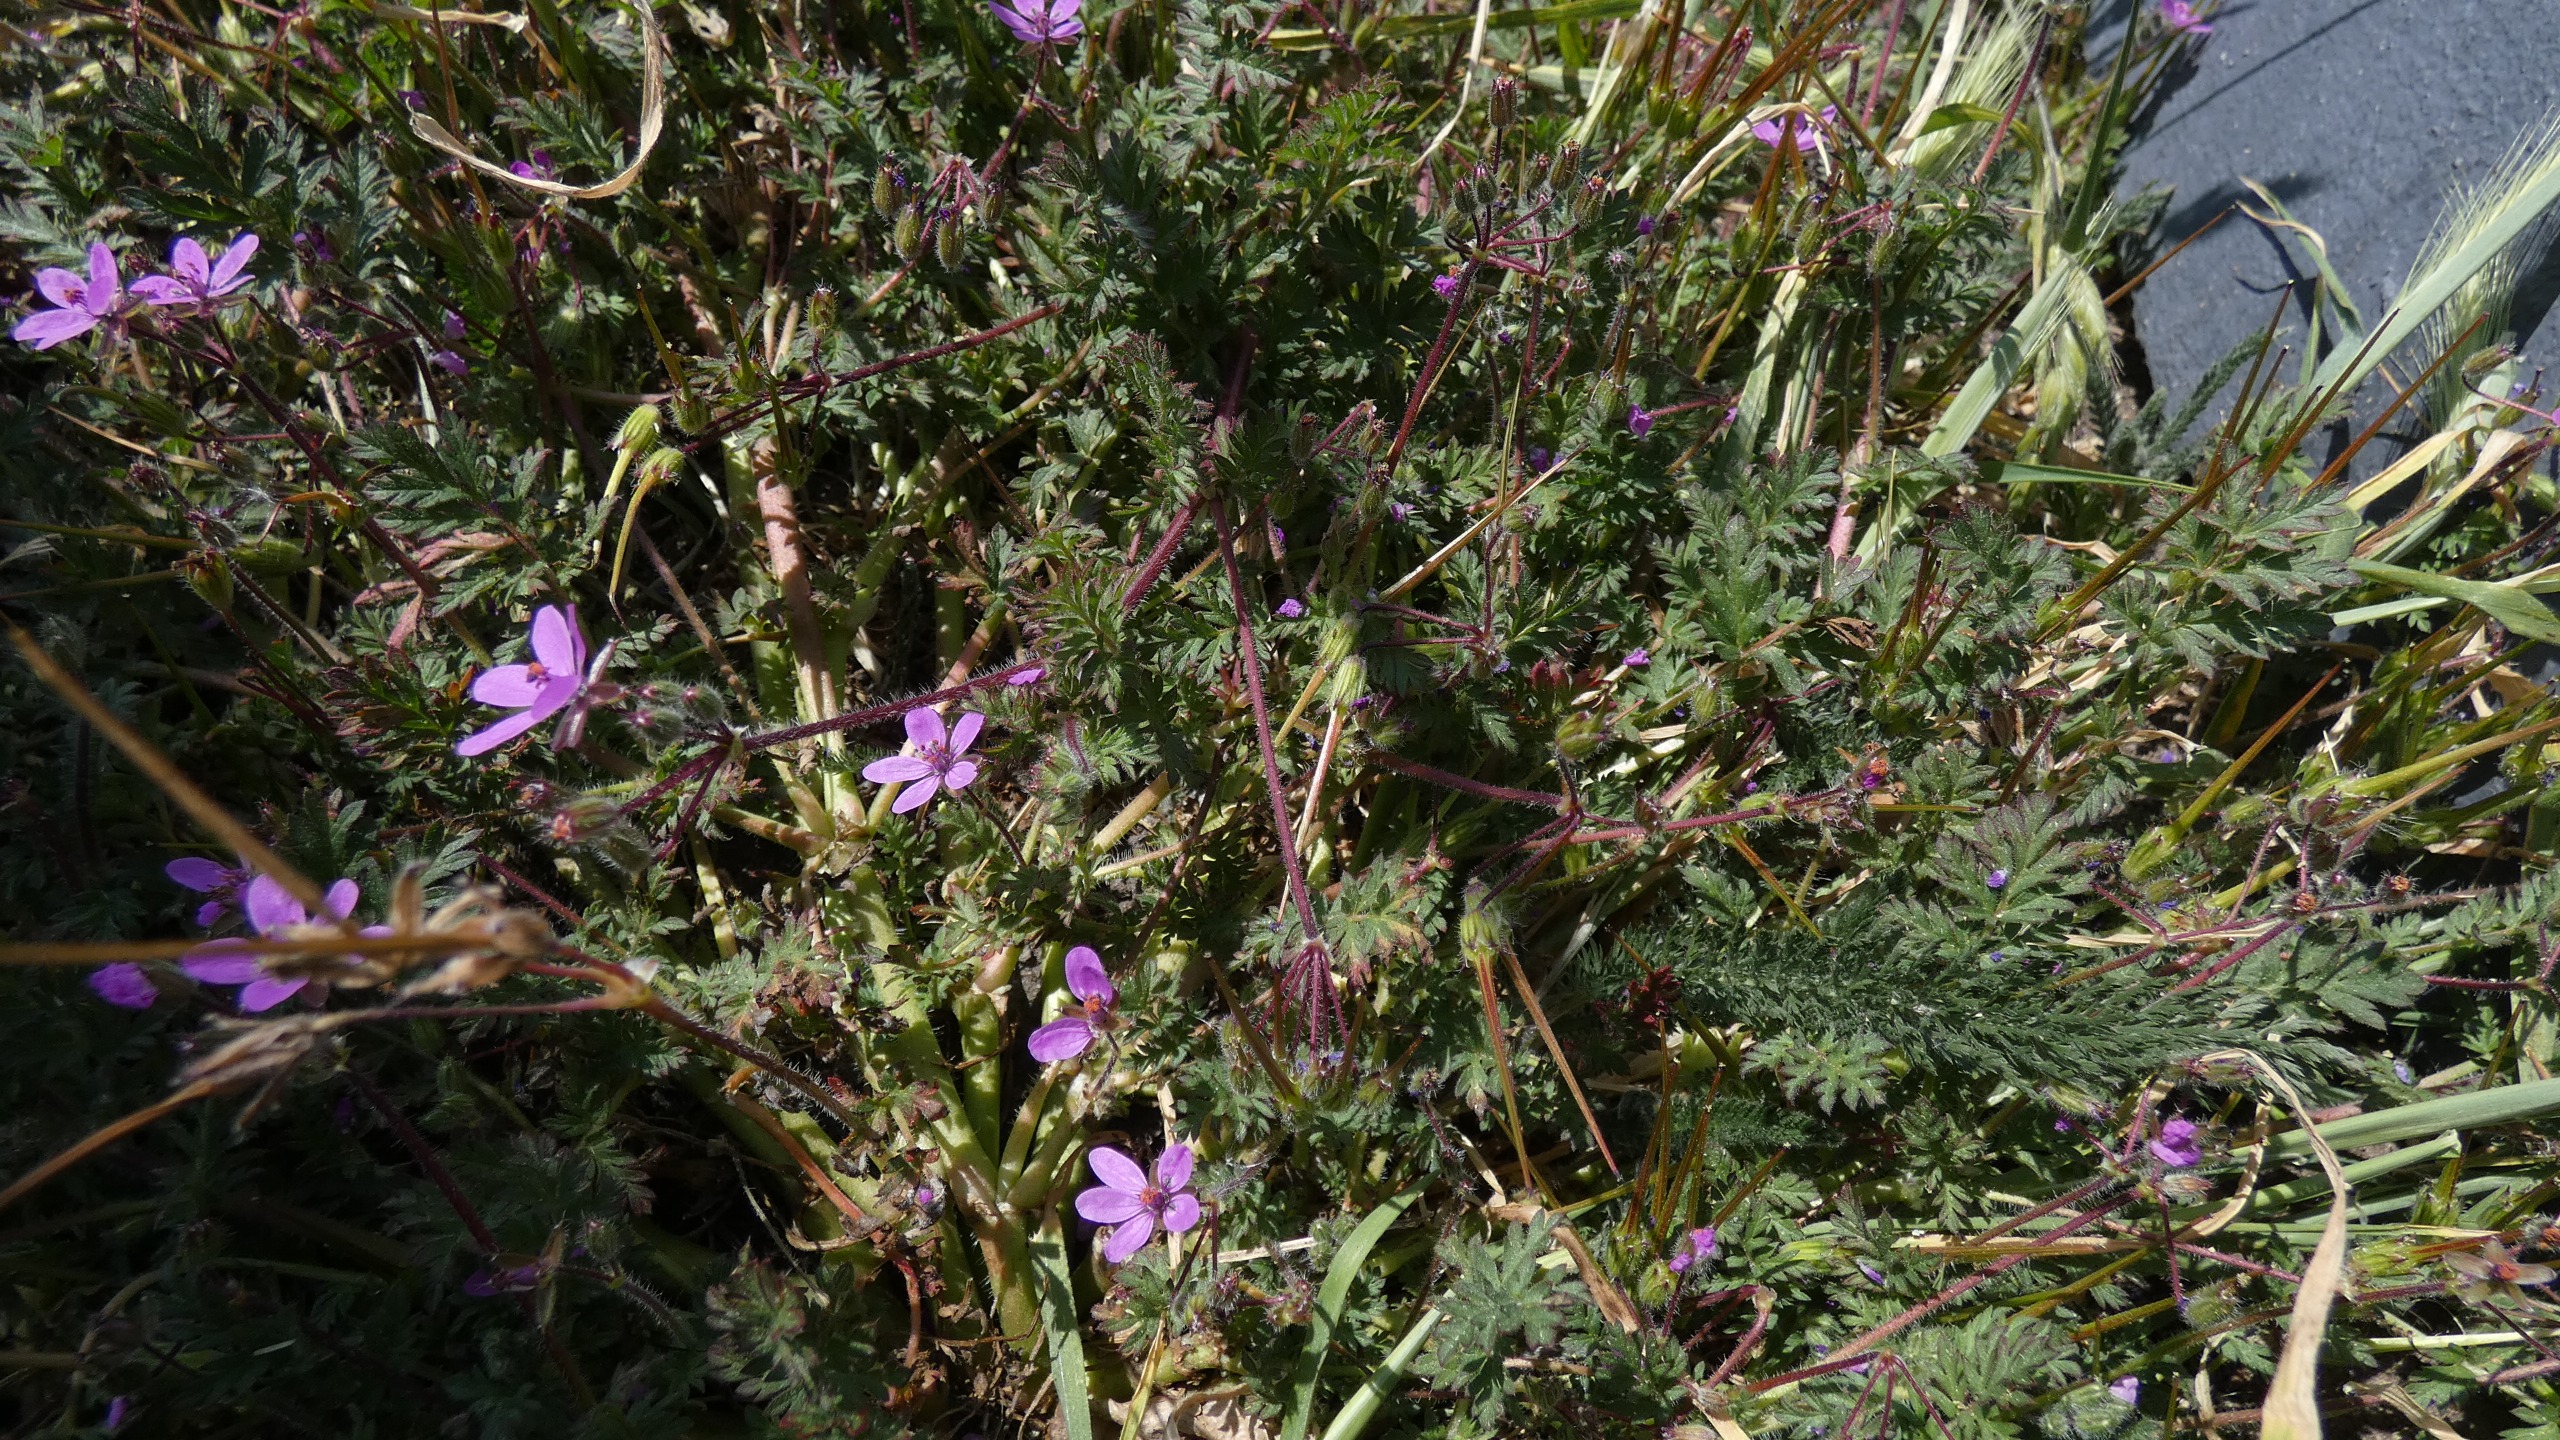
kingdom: Plantae
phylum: Tracheophyta
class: Magnoliopsida
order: Geraniales
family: Geraniaceae
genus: Erodium
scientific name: Erodium cicutarium
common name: Hejrenæb
